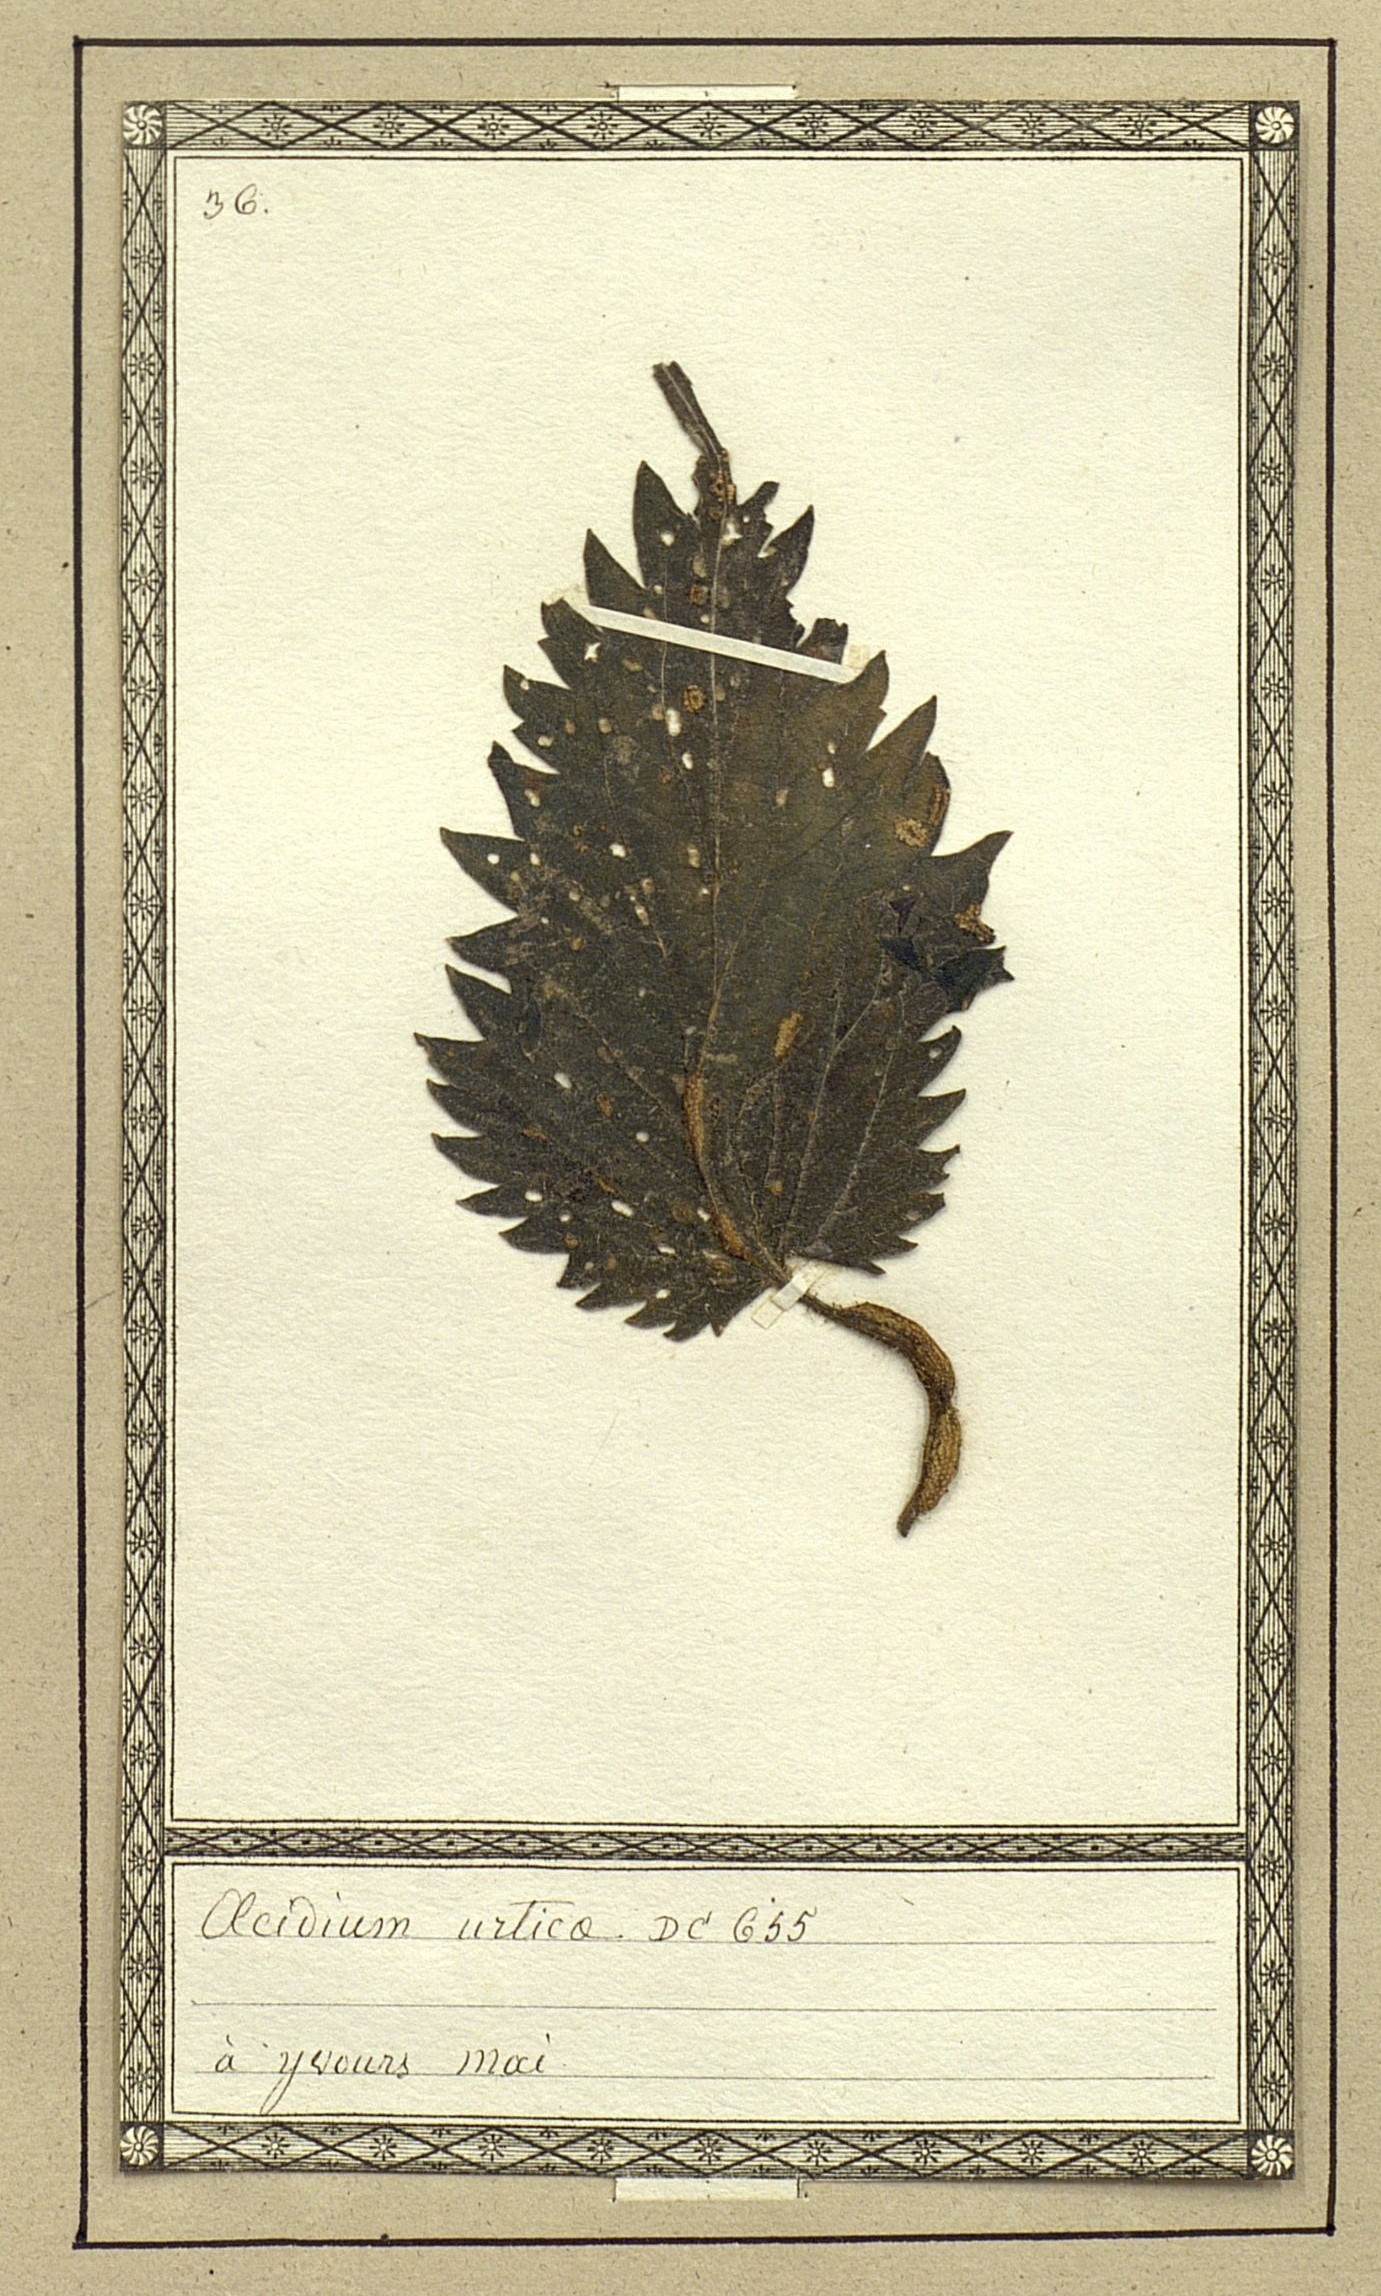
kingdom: Fungi
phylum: Basidiomycota
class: Pucciniomycetes
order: Pucciniales
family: Pucciniaceae
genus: Aecidium
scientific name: Aecidium urticae
